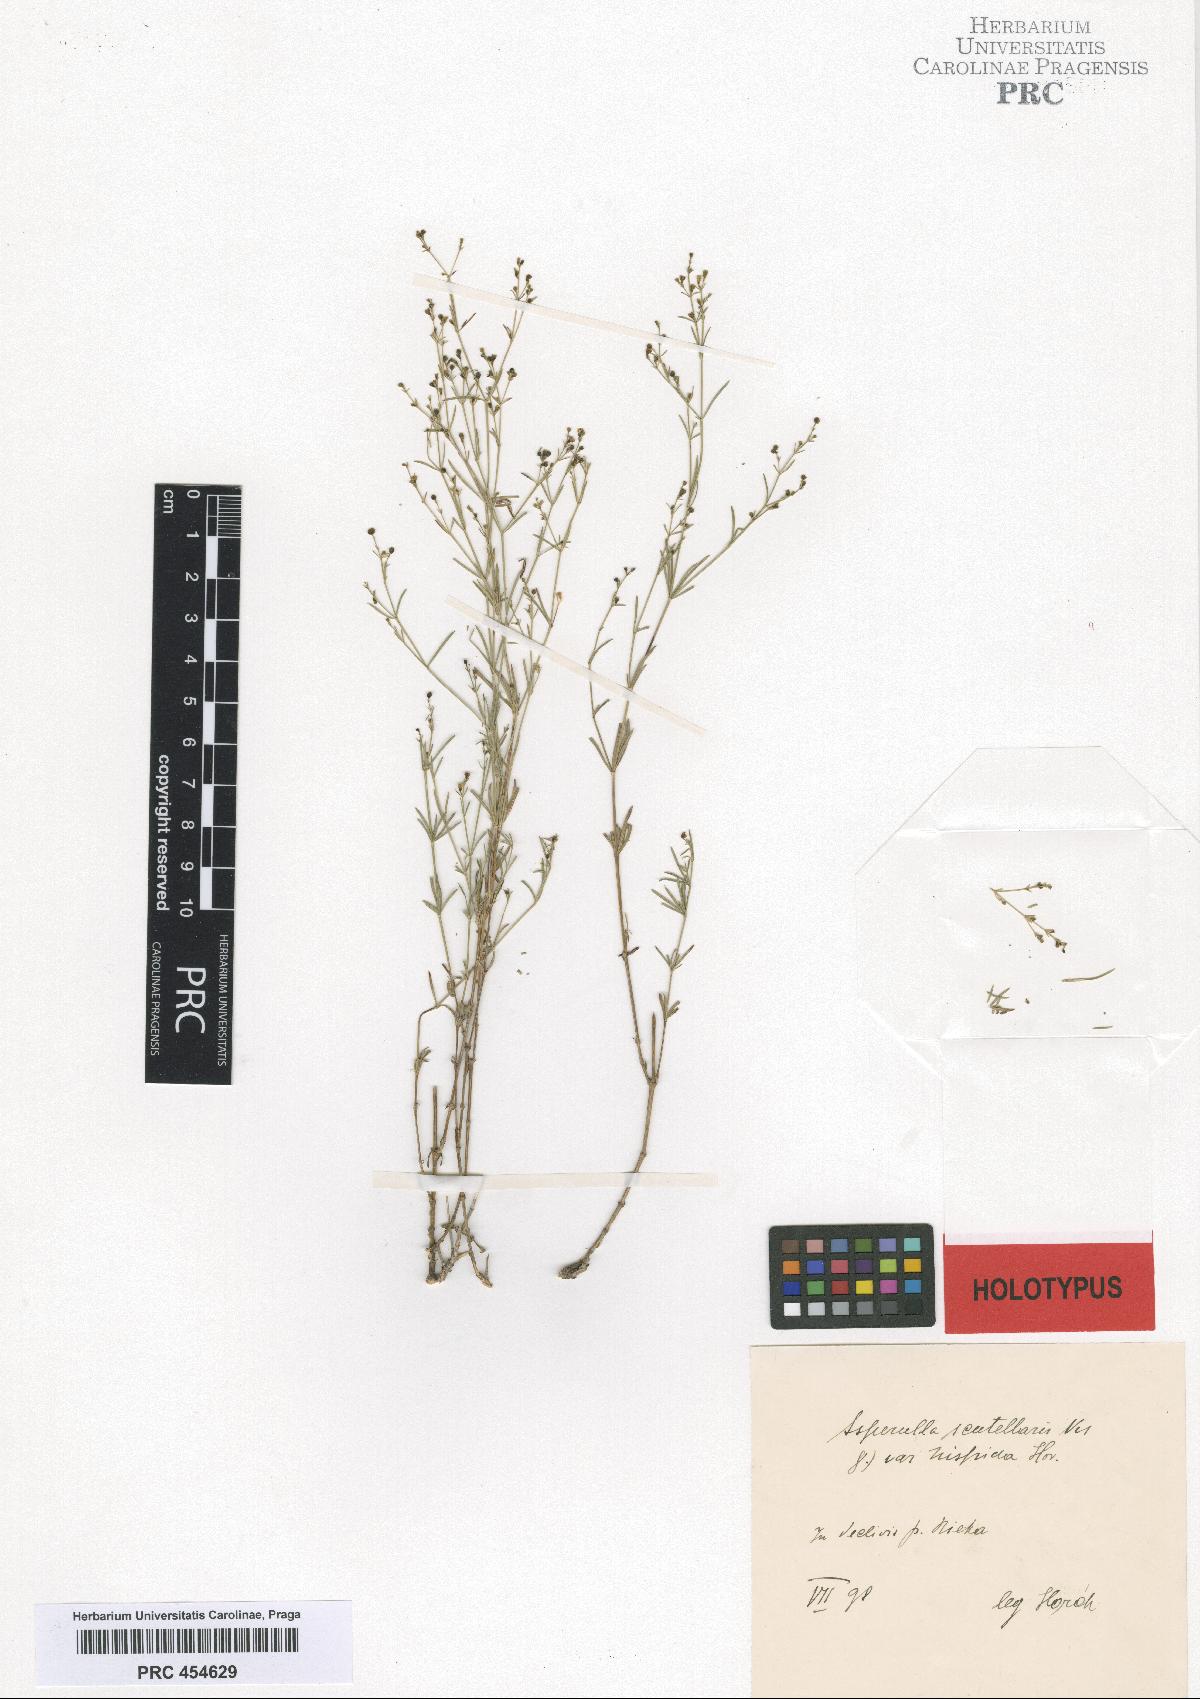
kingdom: Plantae
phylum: Tracheophyta
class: Magnoliopsida
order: Gentianales
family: Rubiaceae
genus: Thliphthisa
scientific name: Thliphthisa rupestris
